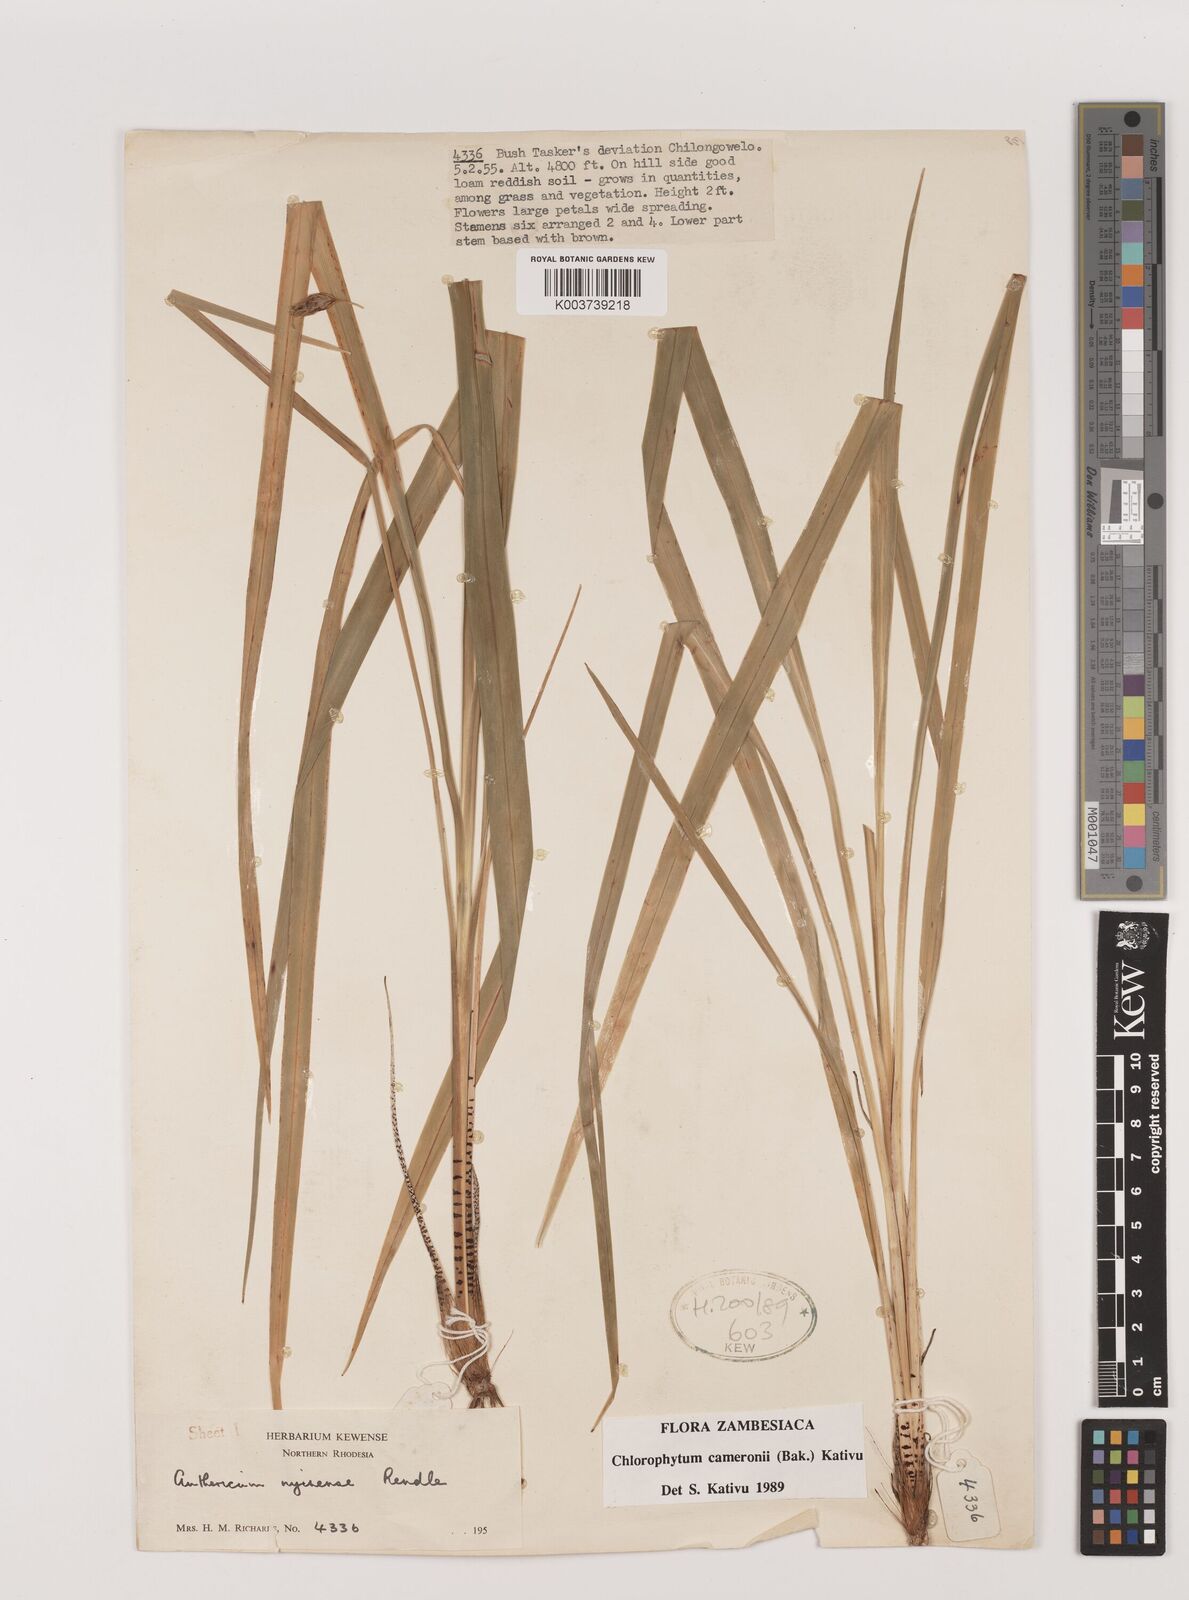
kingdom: Plantae
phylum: Tracheophyta
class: Liliopsida
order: Asparagales
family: Asparagaceae
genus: Chlorophytum
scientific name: Chlorophytum cameronii
